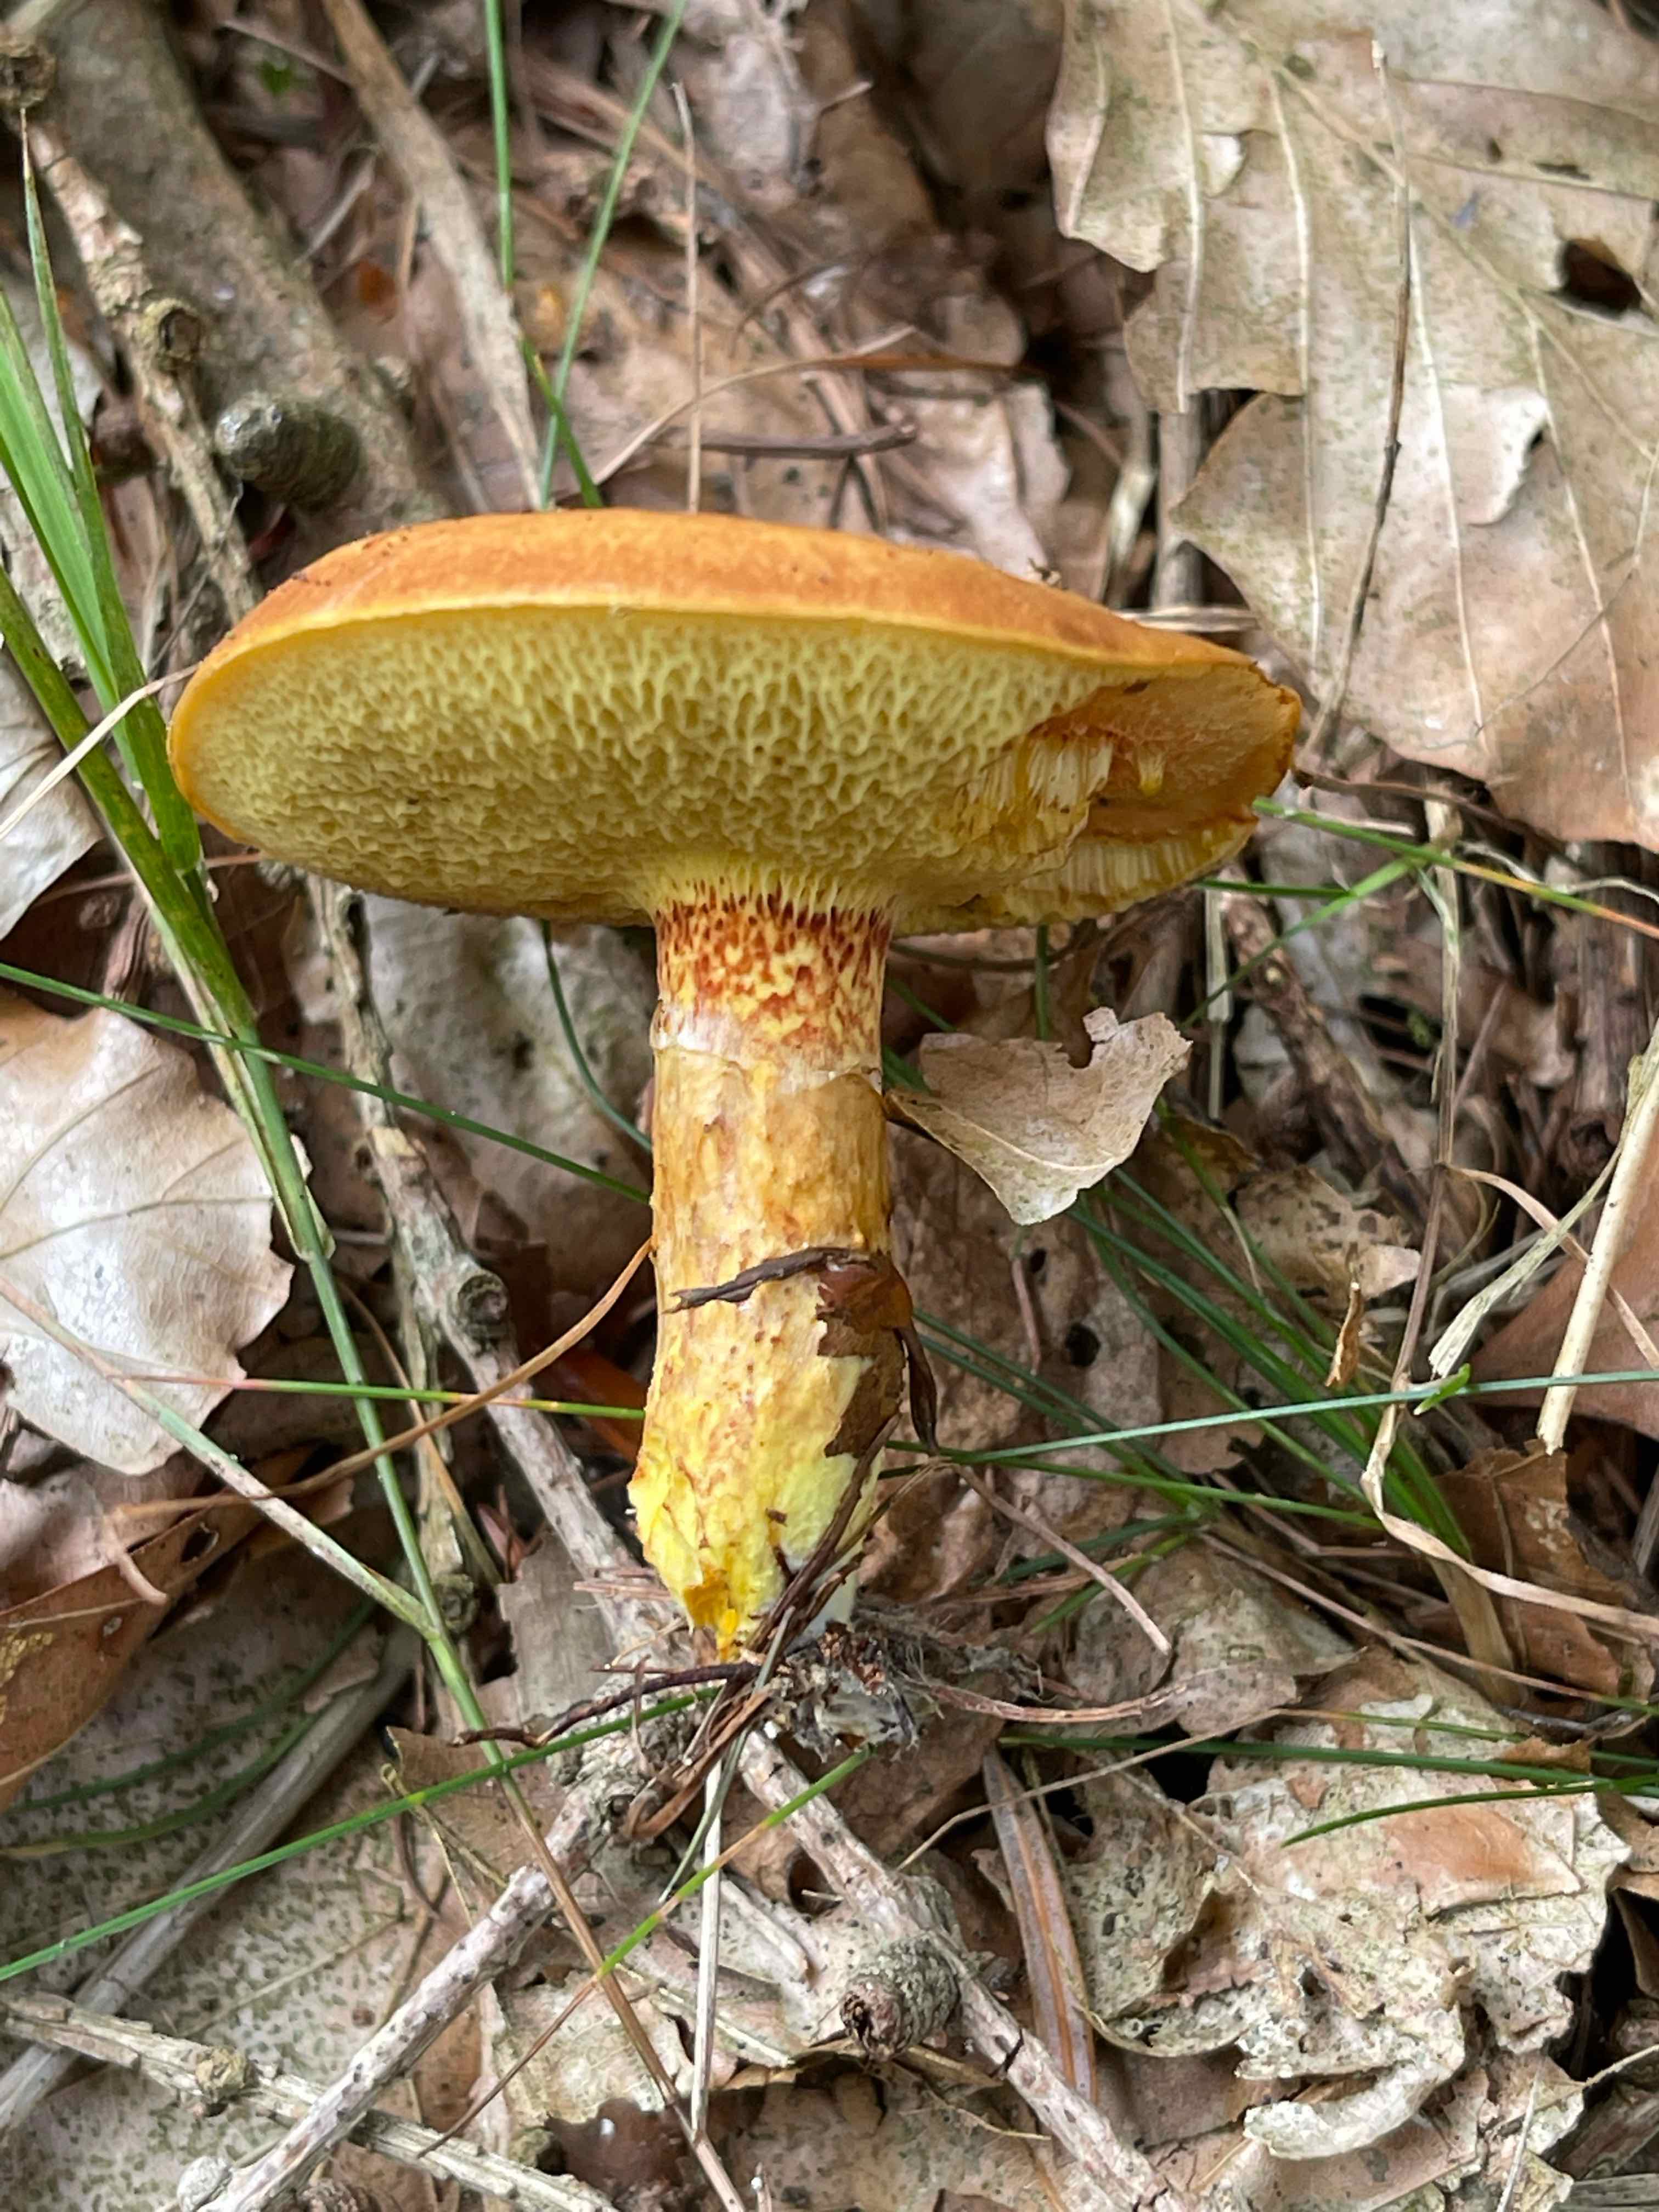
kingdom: Fungi
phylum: Basidiomycota
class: Agaricomycetes
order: Boletales
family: Suillaceae
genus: Suillus
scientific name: Suillus grevillei
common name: lærke-slimrørhat
